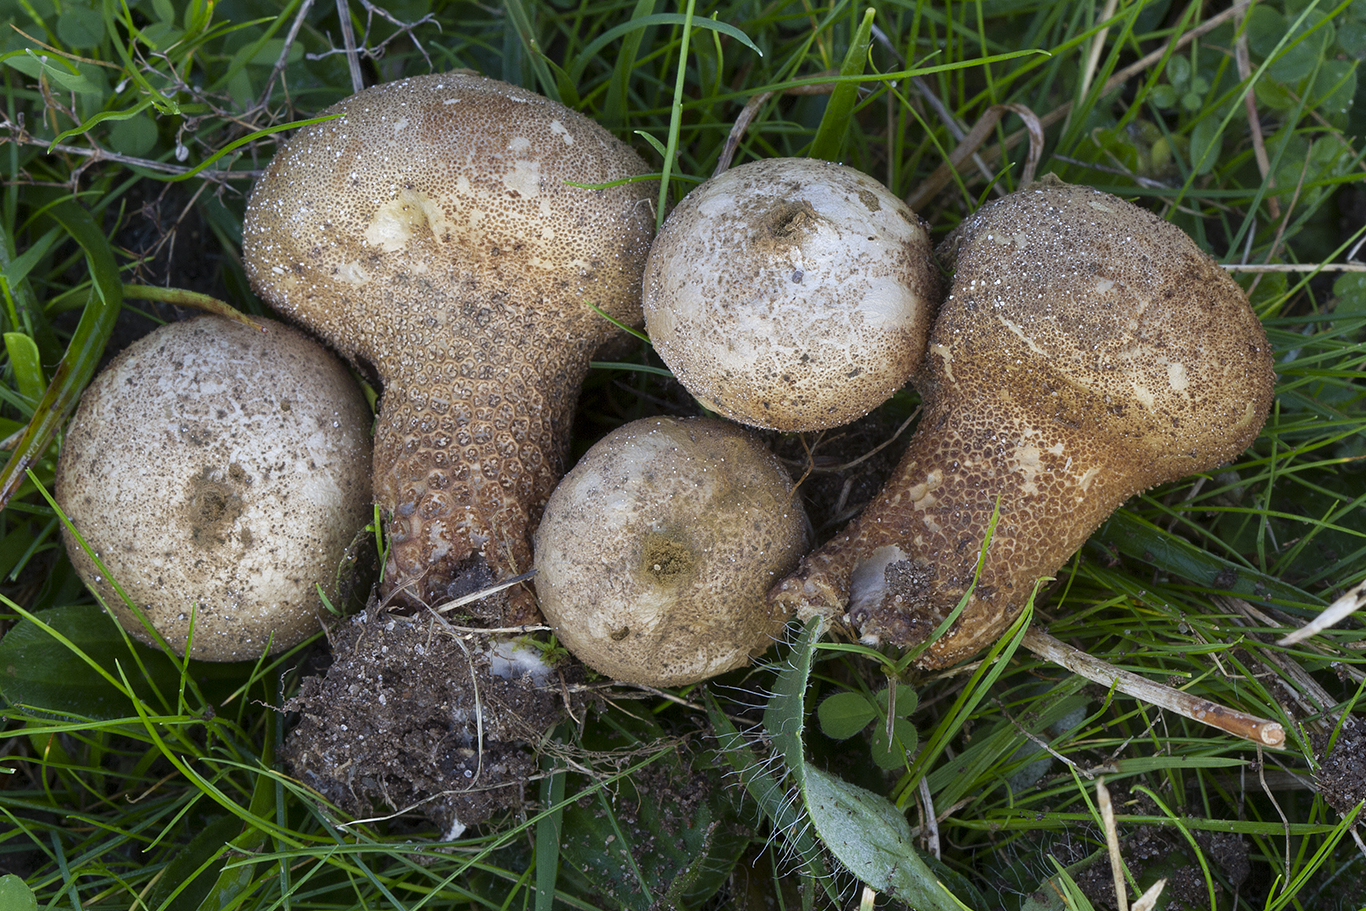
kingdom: Fungi
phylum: Basidiomycota
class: Agaricomycetes
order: Agaricales
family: Lycoperdaceae
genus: Lycoperdon
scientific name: Lycoperdon lividum
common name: mark-støvbold
